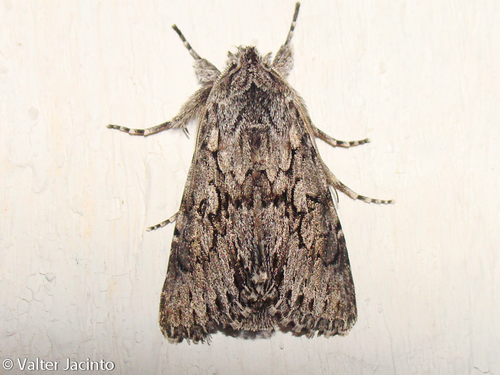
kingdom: Animalia
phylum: Arthropoda
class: Insecta
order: Lepidoptera
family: Noctuidae
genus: Xylocampa
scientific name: Xylocampa areola
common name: Early grey
